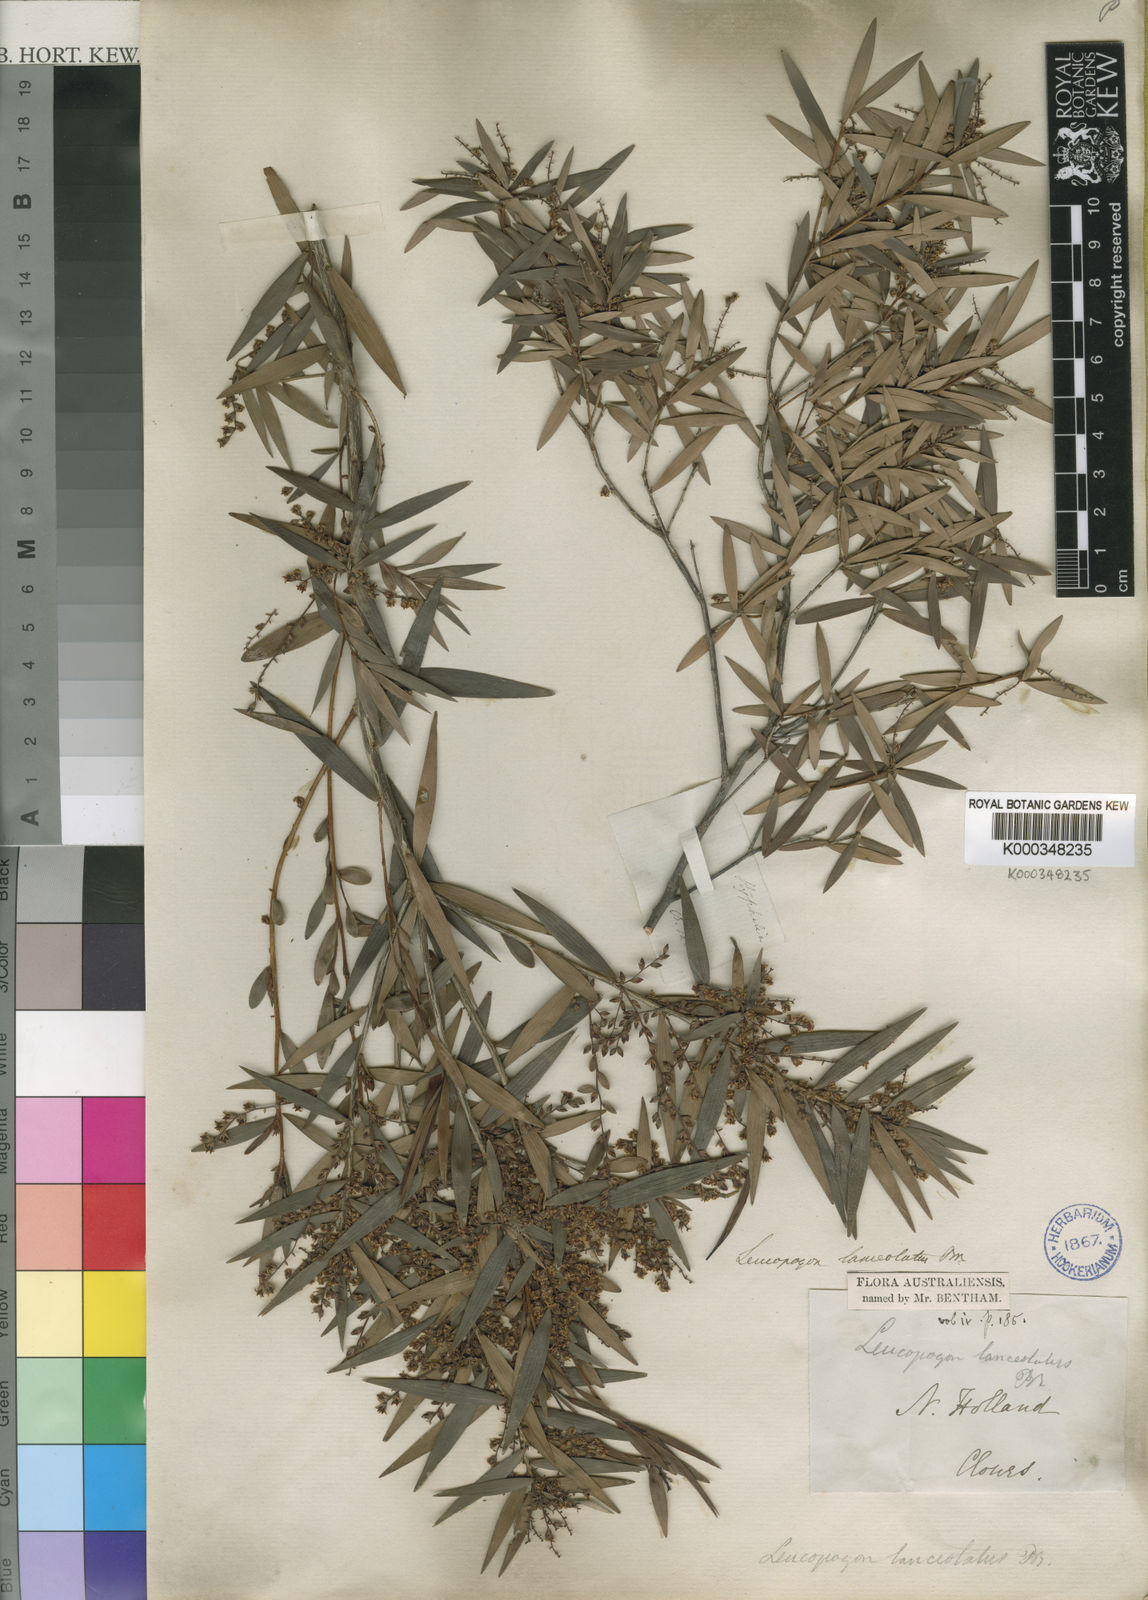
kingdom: Plantae
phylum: Tracheophyta
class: Magnoliopsida
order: Ericales
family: Ericaceae
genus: Leucopogon
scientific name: Leucopogon lanceolatus
